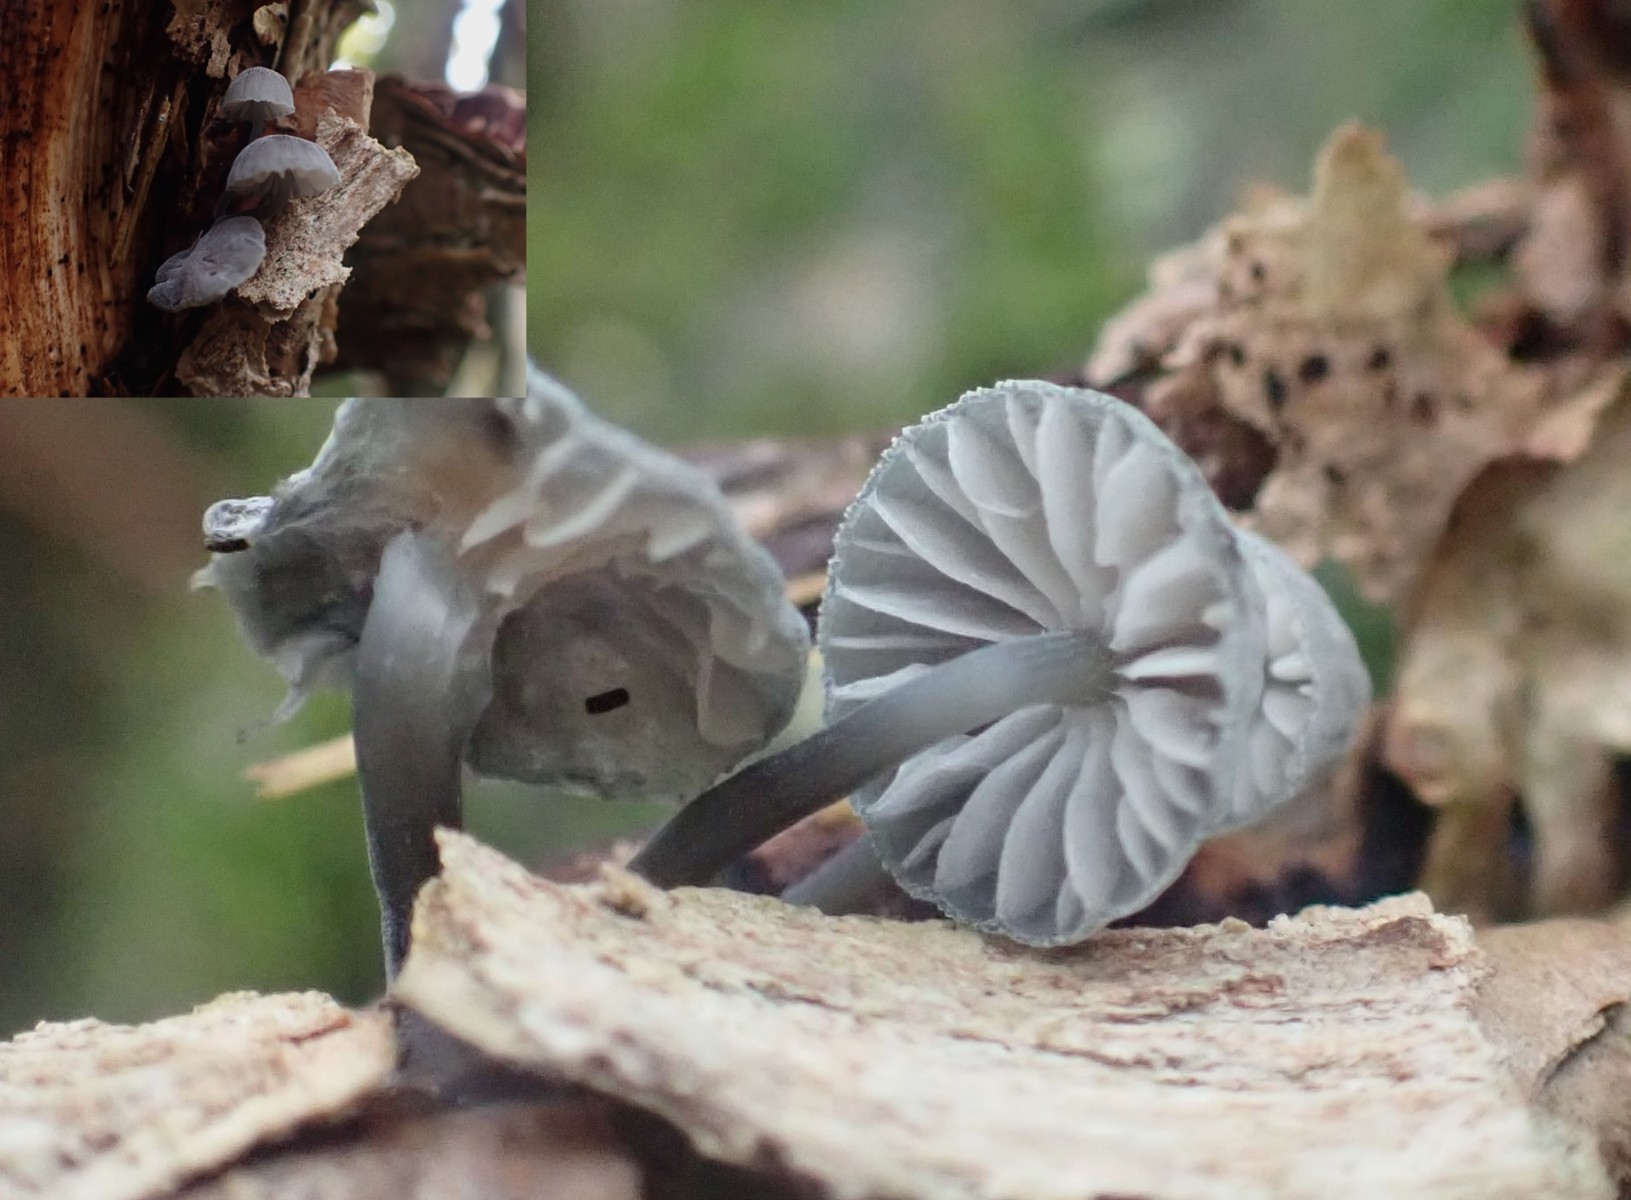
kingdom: Fungi
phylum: Basidiomycota
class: Agaricomycetes
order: Agaricales
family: Mycenaceae
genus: Mycena
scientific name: Mycena pseudocorticola
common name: gråblå bark-huesvamp
